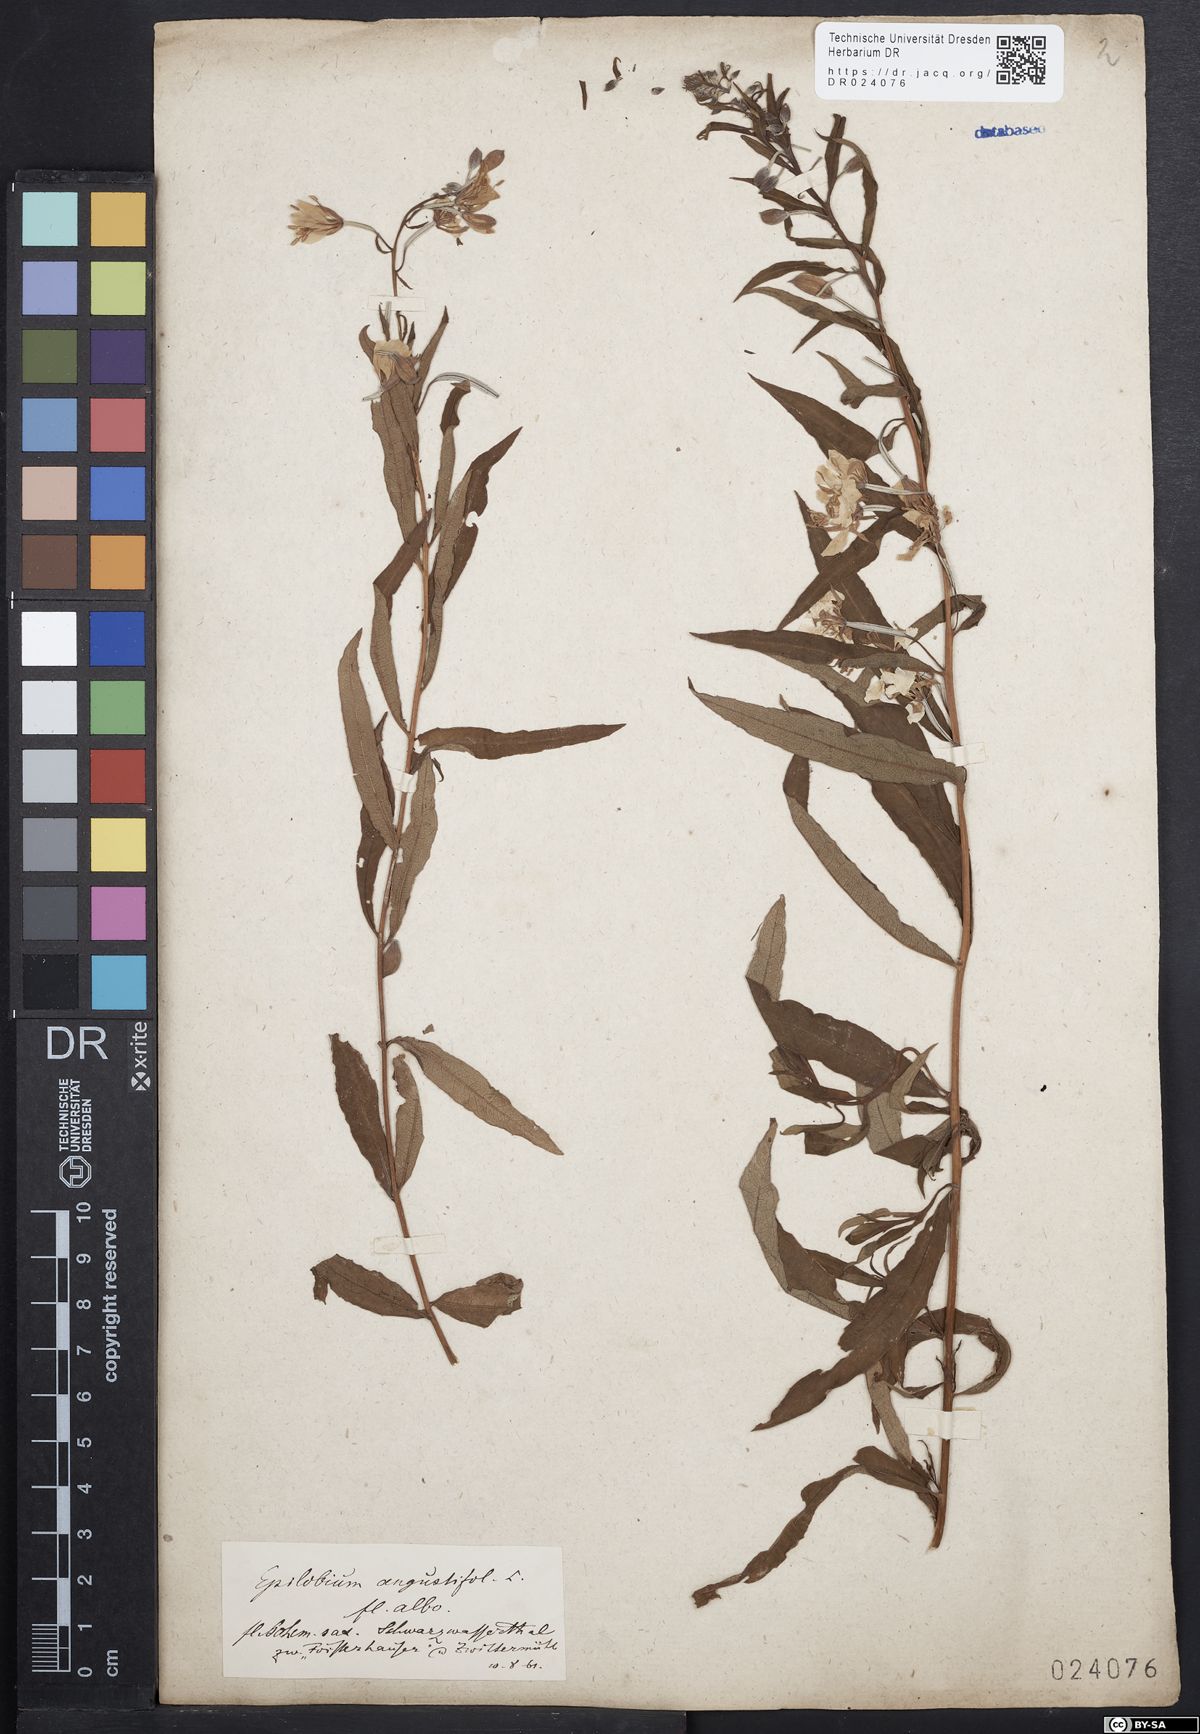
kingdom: Plantae
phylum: Tracheophyta
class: Magnoliopsida
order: Myrtales
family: Onagraceae
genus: Chamaenerion
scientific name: Chamaenerion angustifolium
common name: Fireweed
